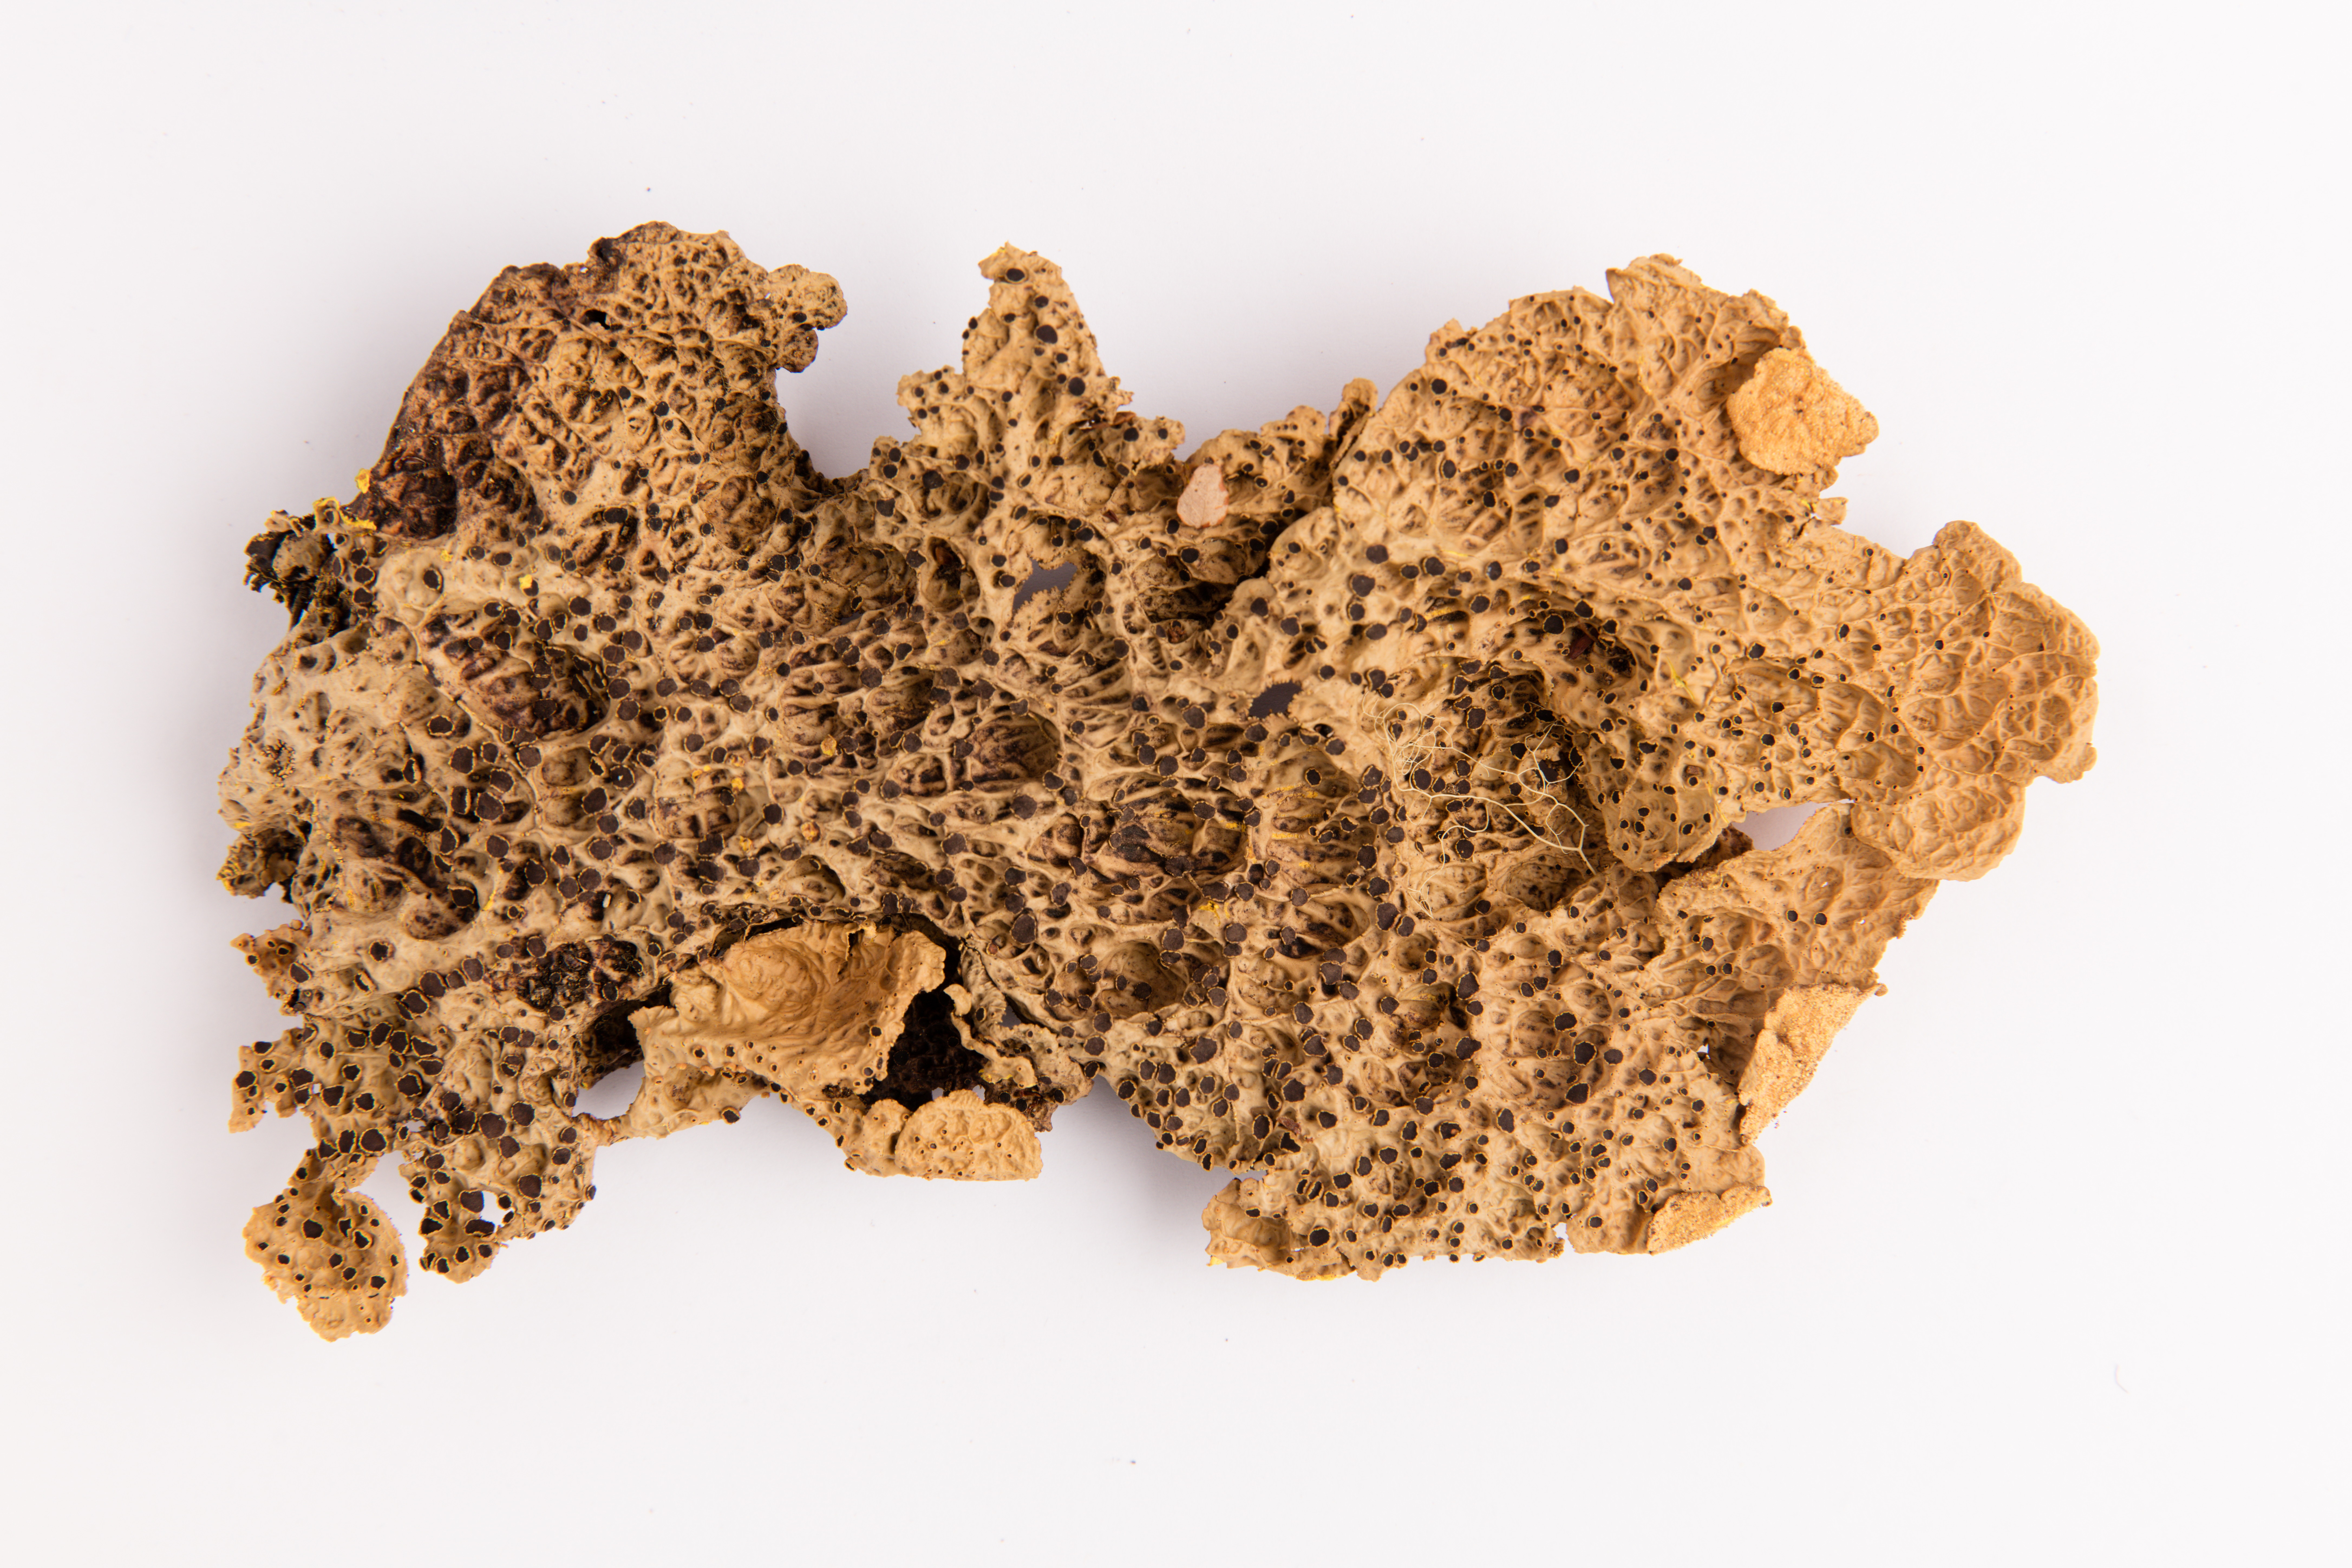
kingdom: Fungi
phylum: Ascomycota
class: Lecanoromycetes
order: Peltigerales
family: Lobariaceae
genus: Yarrumia
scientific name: Yarrumia coronata
